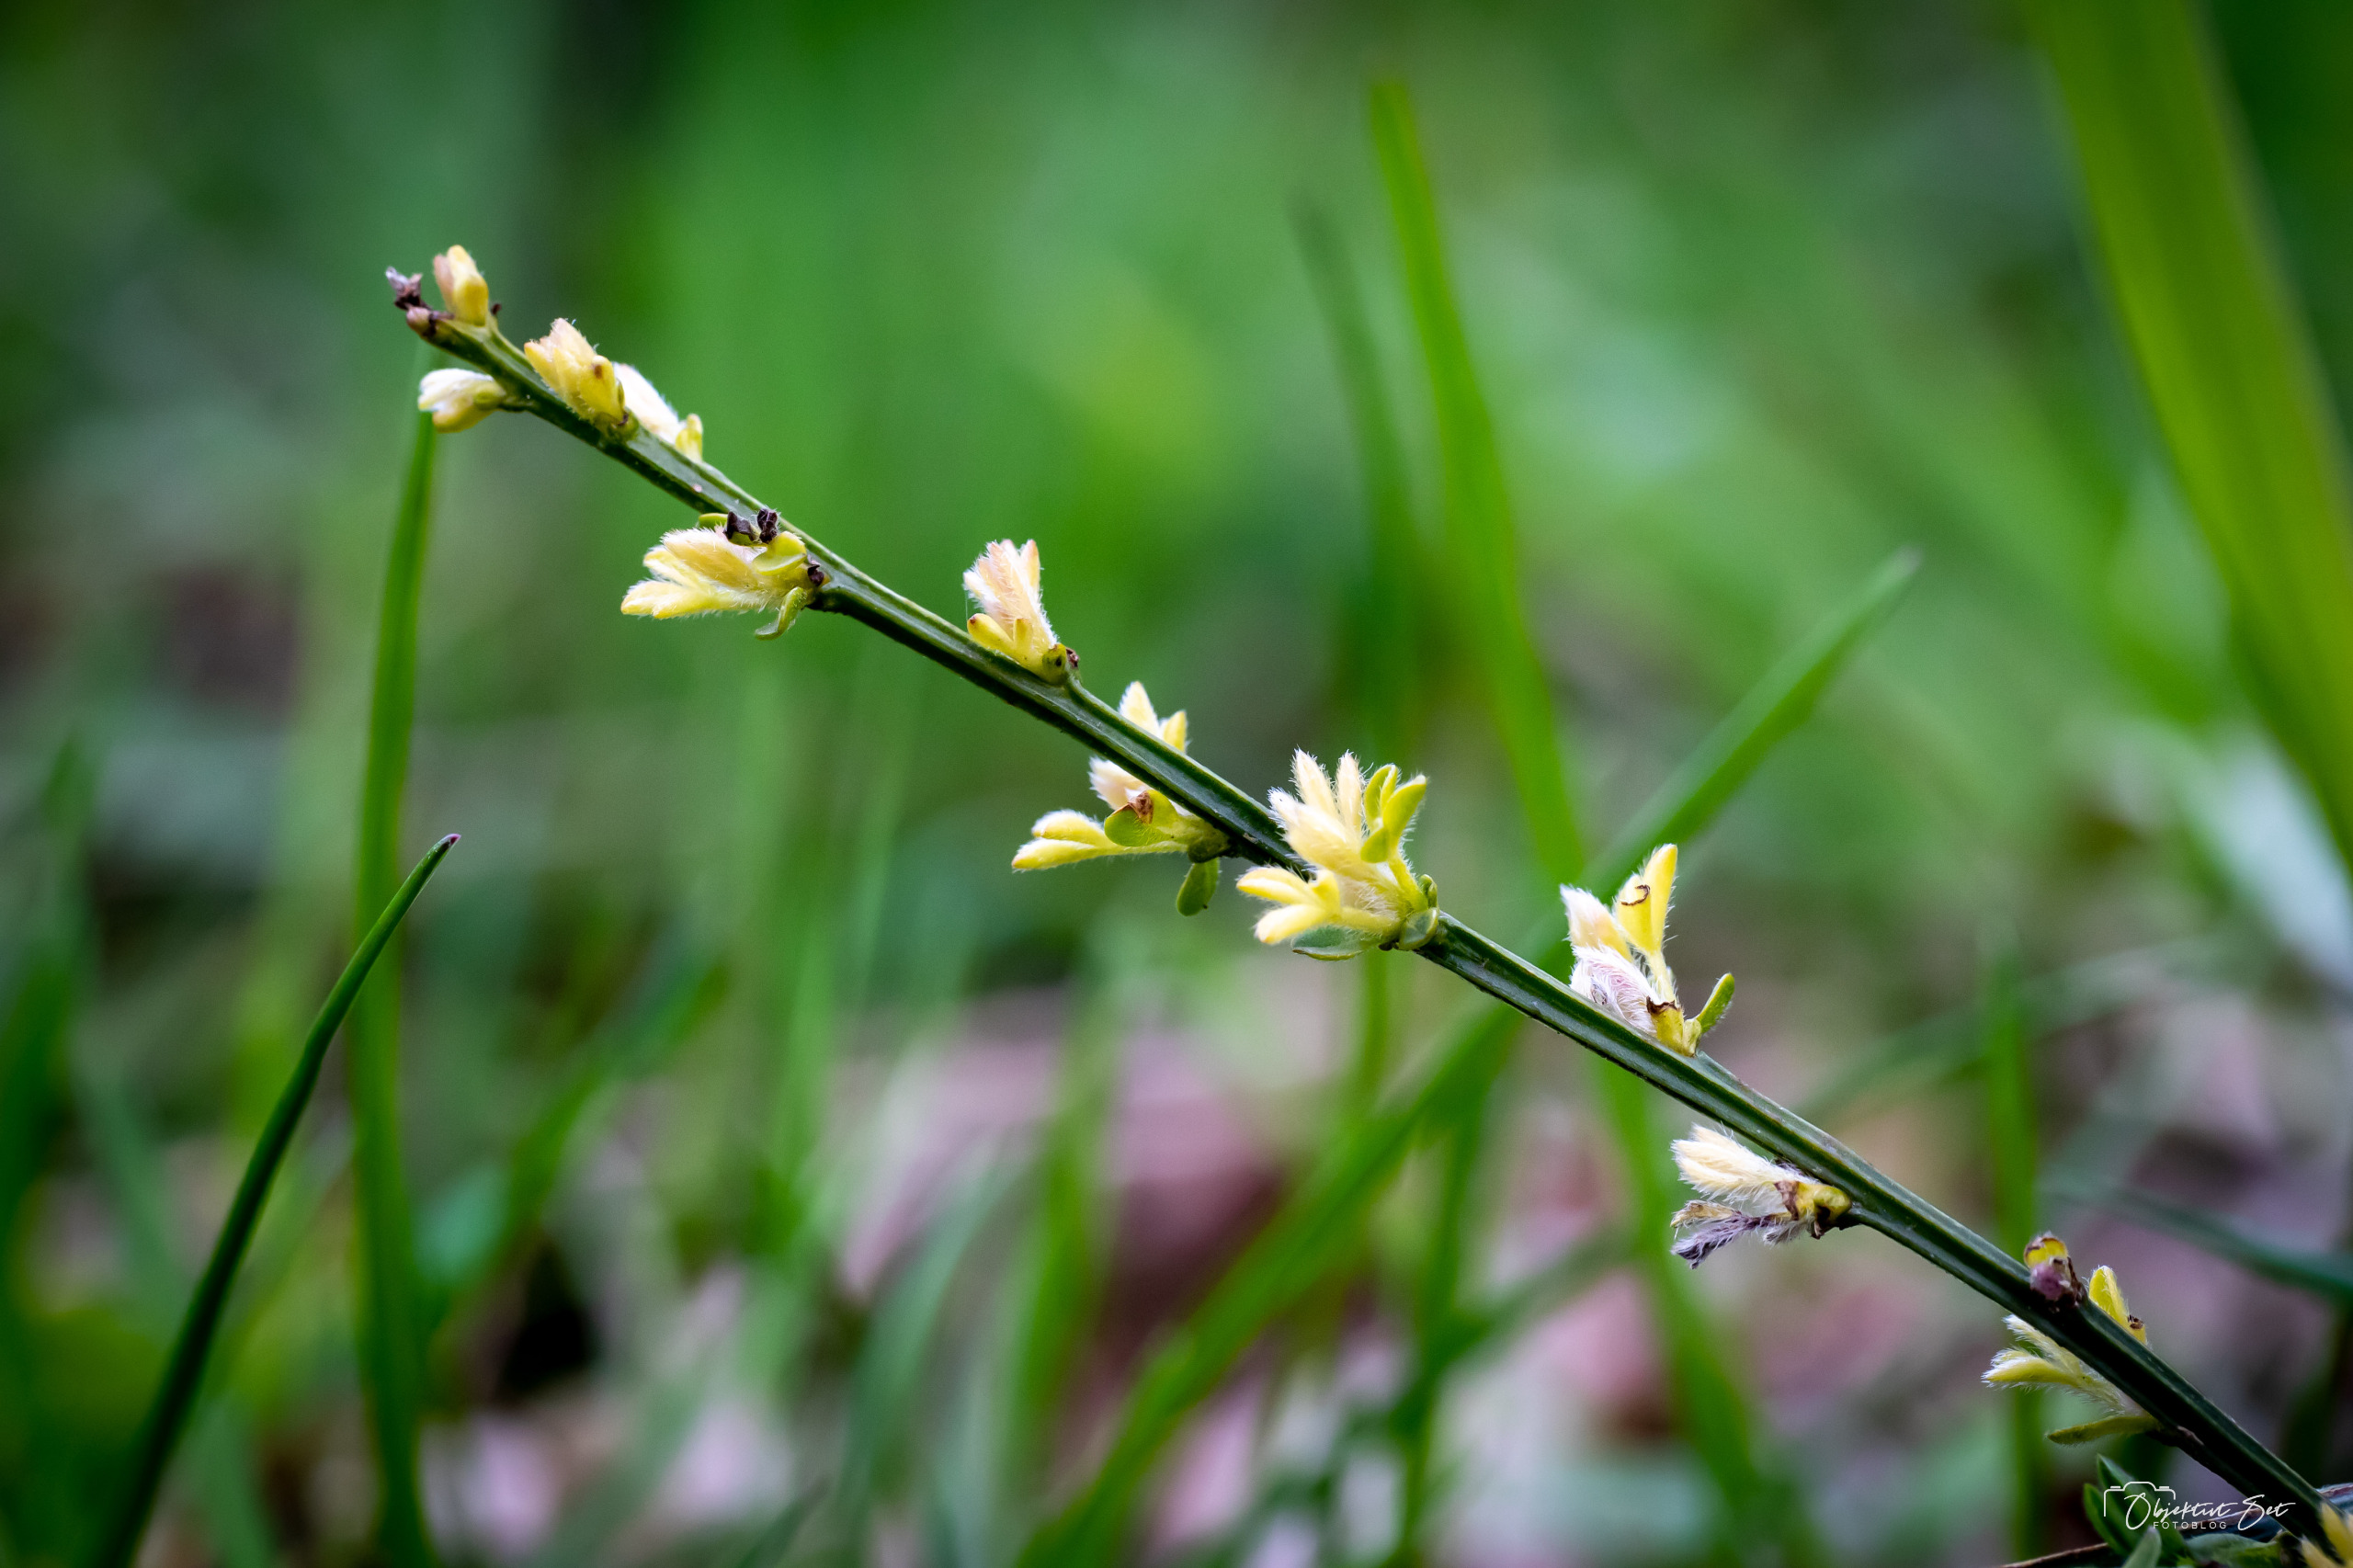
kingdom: Plantae
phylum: Tracheophyta
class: Magnoliopsida
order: Fabales
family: Fabaceae
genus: Cytisus
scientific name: Cytisus scoparius
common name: Almindelig gyvel
